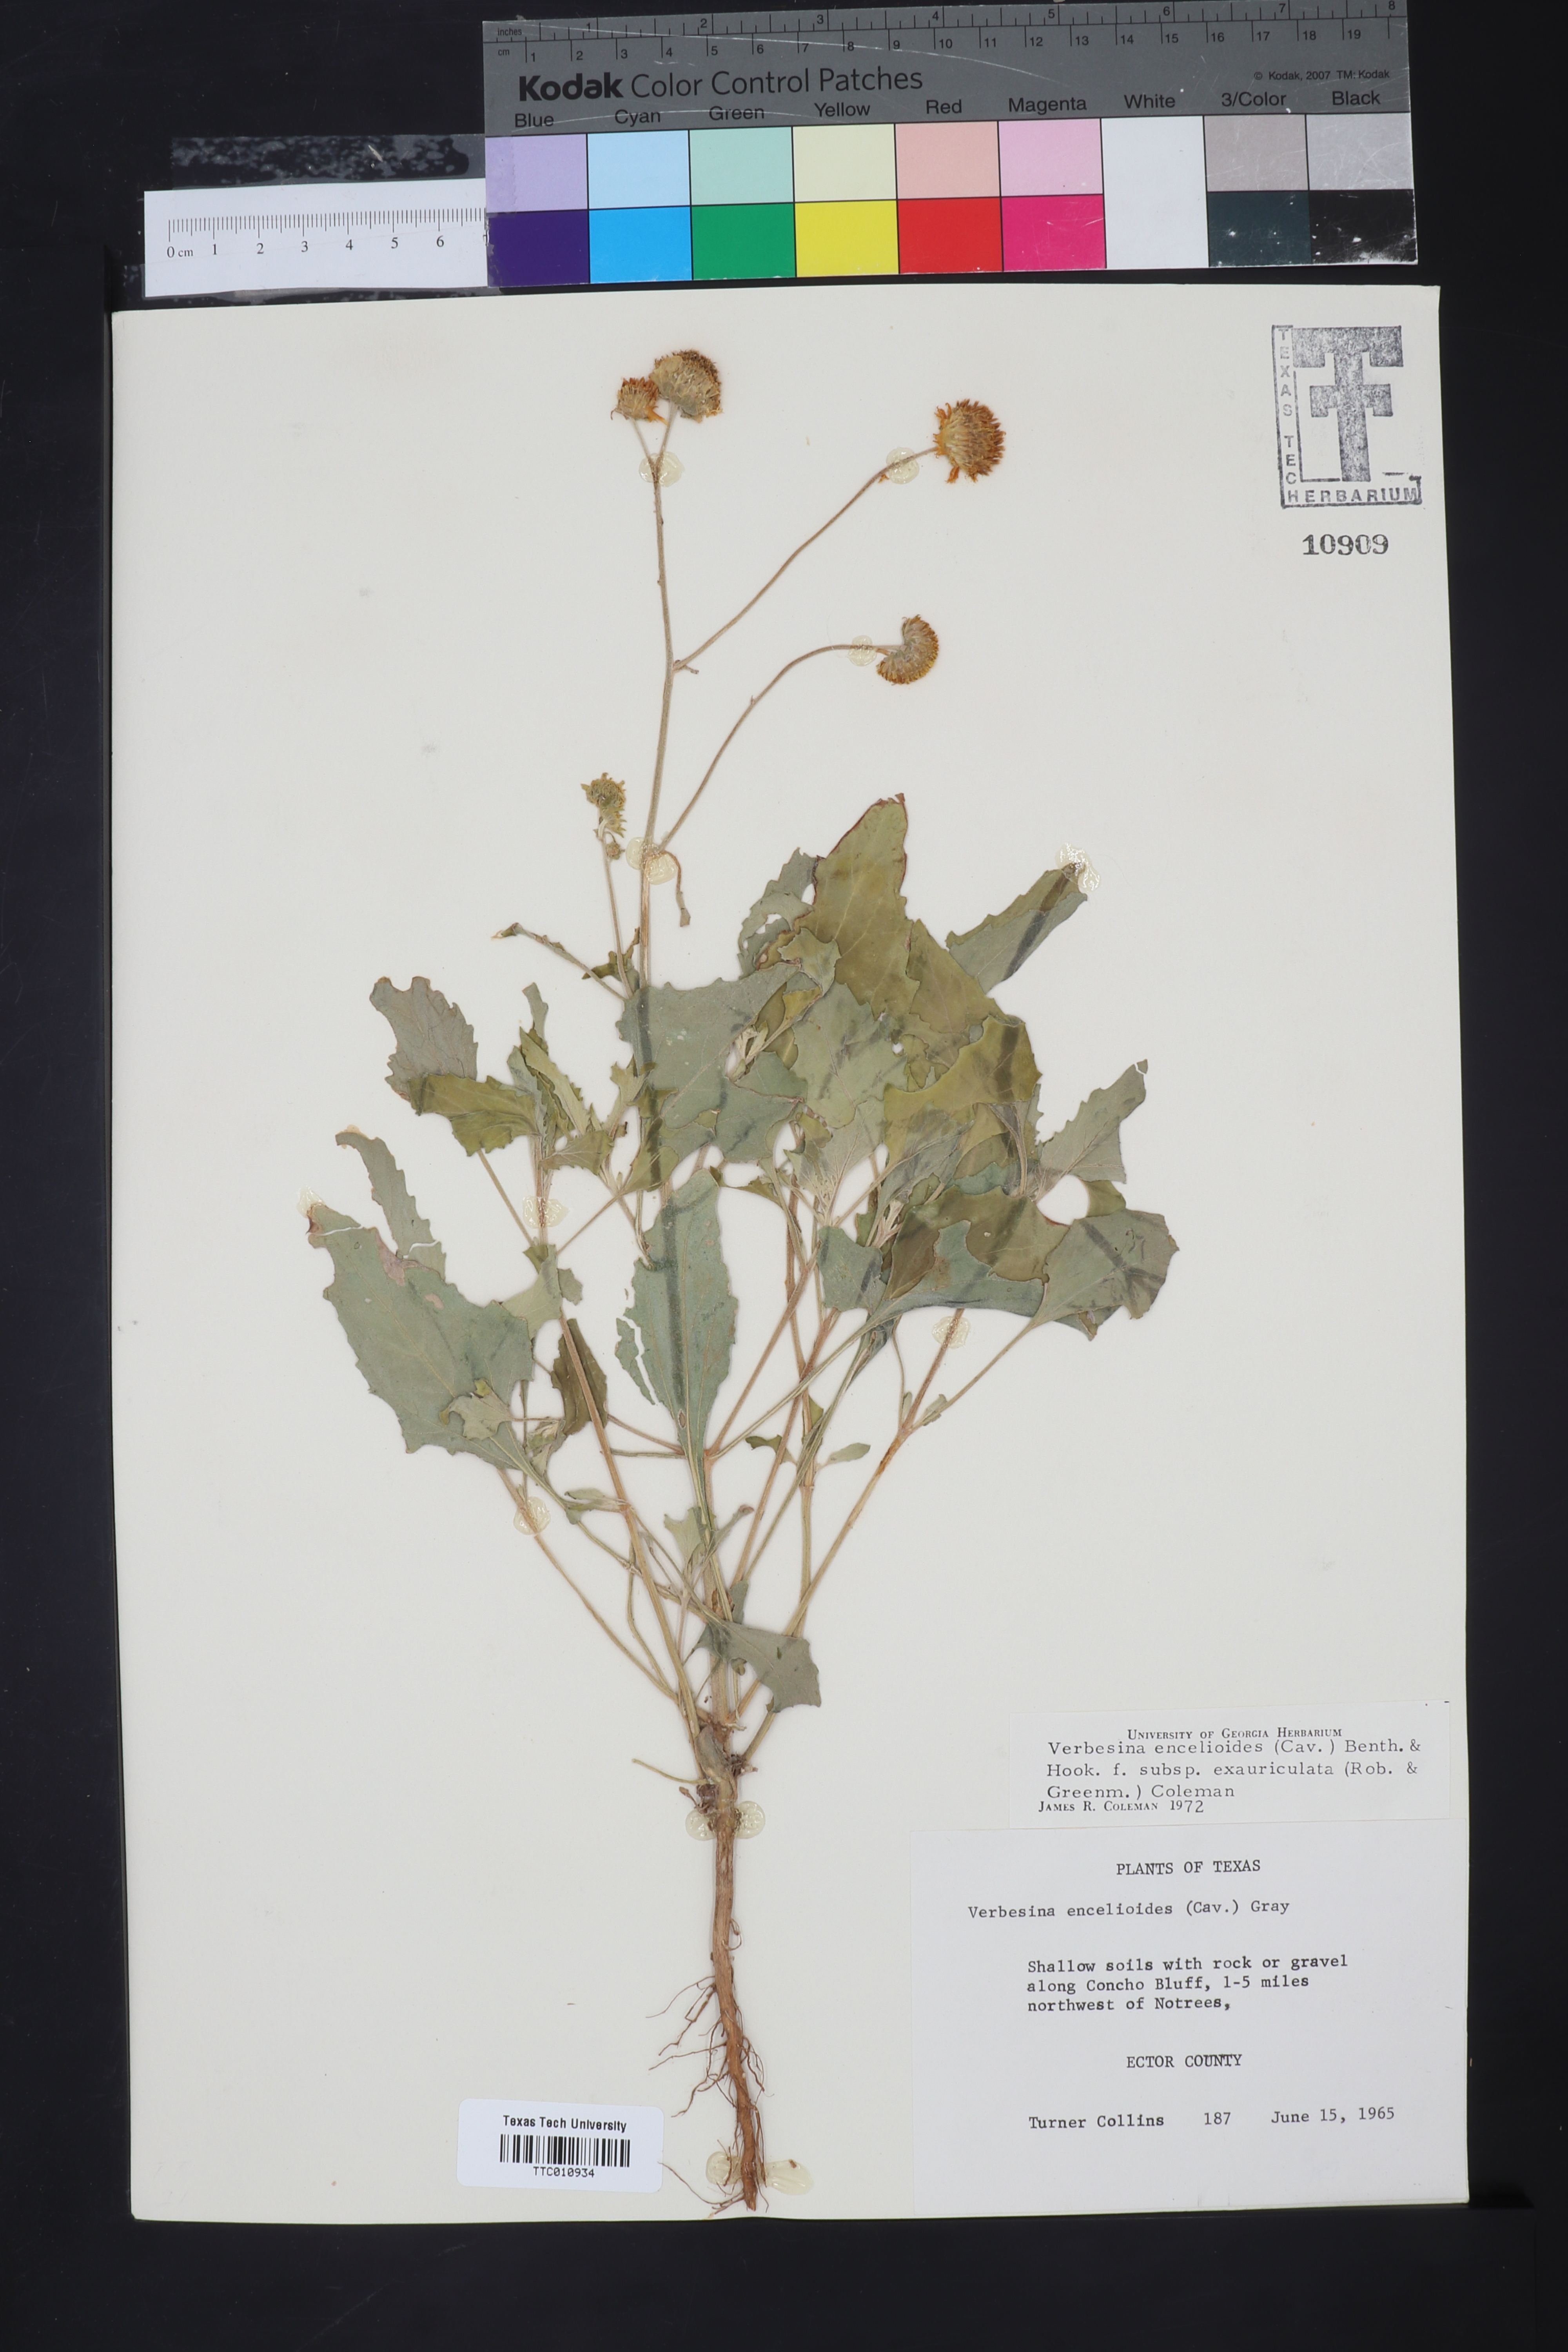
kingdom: Plantae
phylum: Tracheophyta
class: Magnoliopsida
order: Asterales
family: Asteraceae
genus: Verbesina
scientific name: Verbesina encelioides
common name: Golden crownbeard
